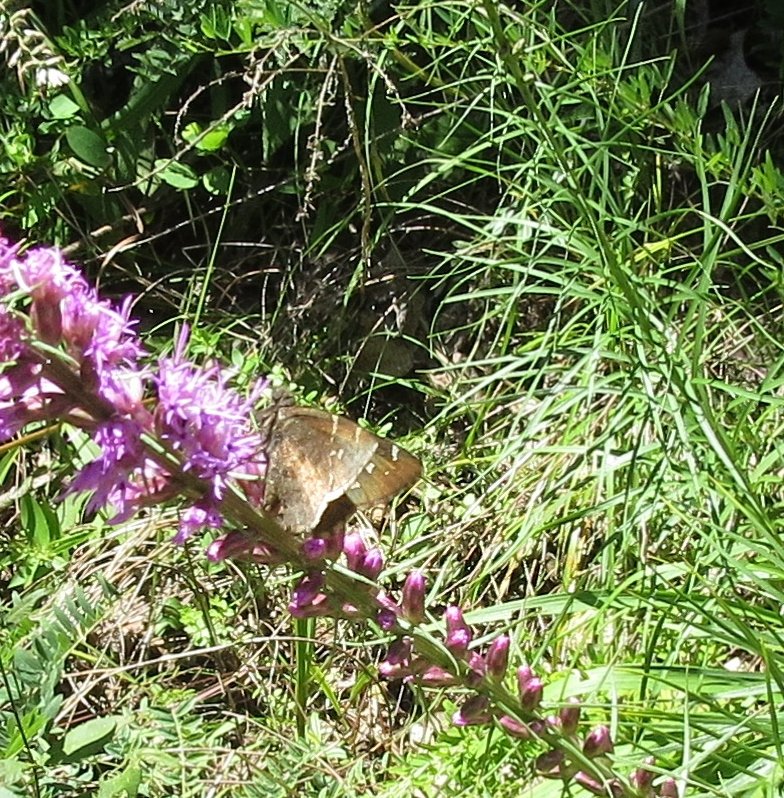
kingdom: Animalia
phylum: Arthropoda
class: Insecta
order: Lepidoptera
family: Hesperiidae
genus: Autochton
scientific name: Autochton
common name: Northern Cloudywing
